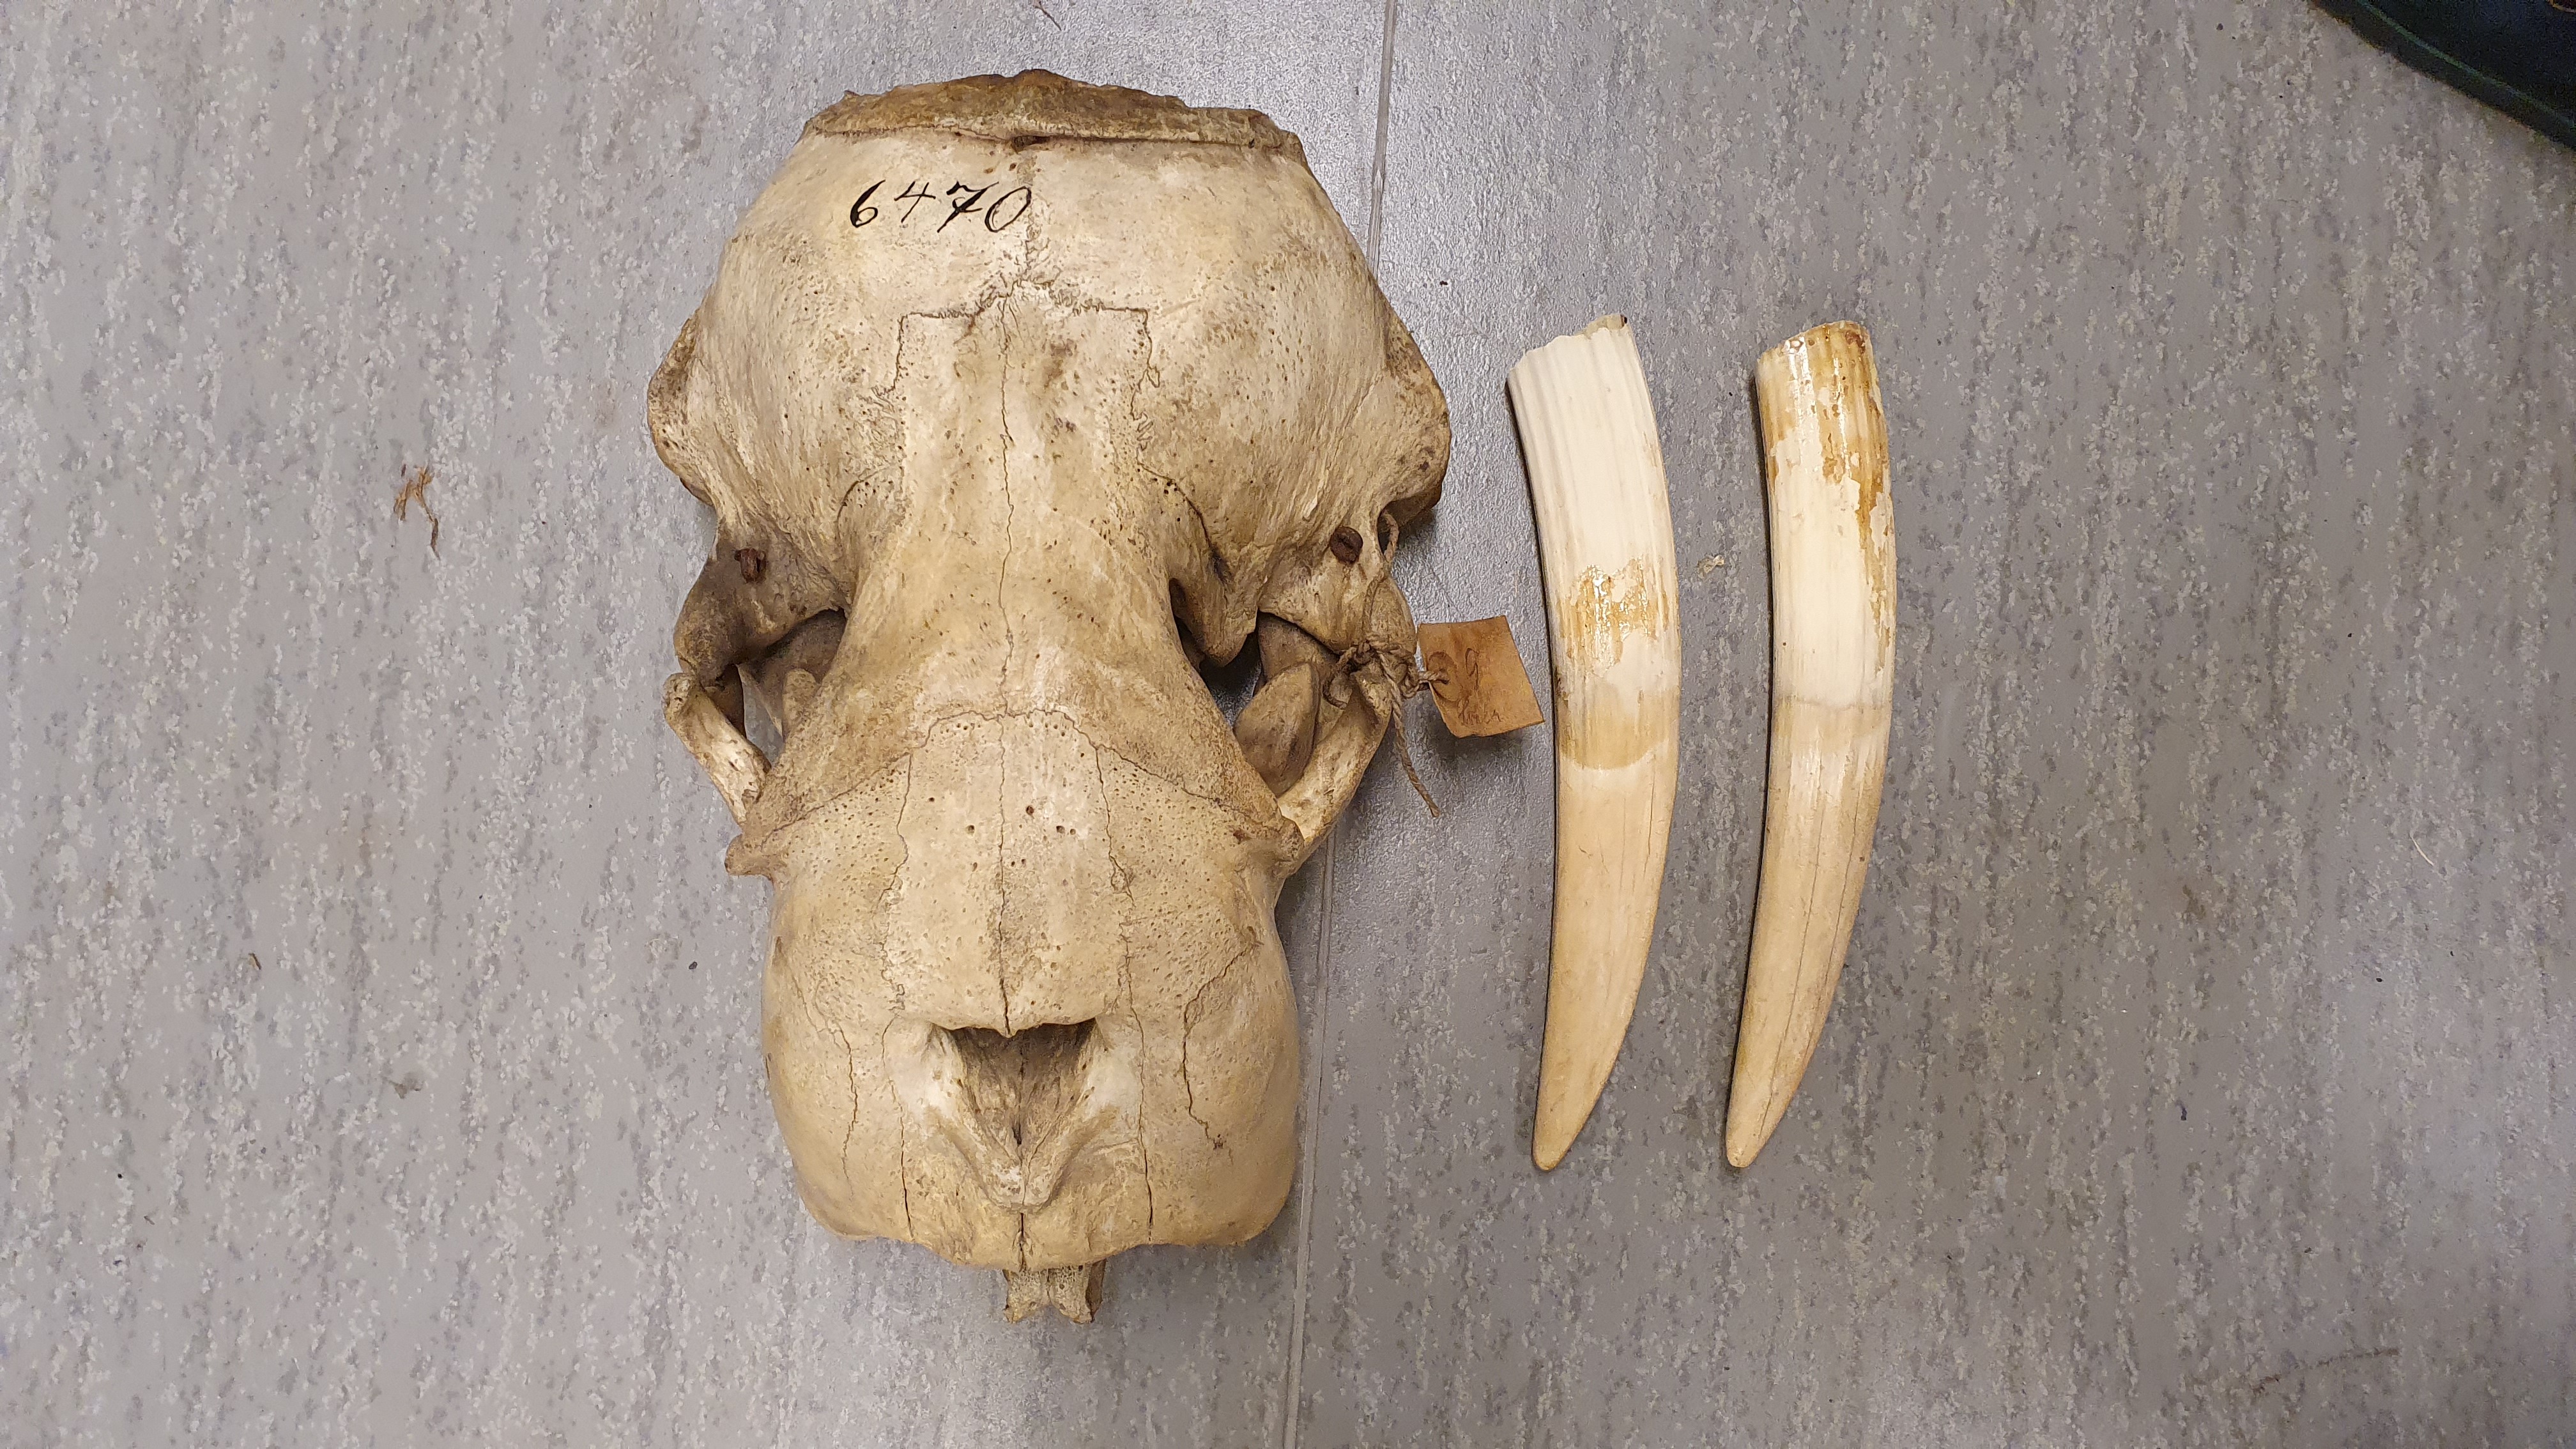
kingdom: Animalia
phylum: Chordata
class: Mammalia
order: Carnivora
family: Odobenidae
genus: Odobenus
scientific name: Odobenus rosmarus
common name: Walrus
